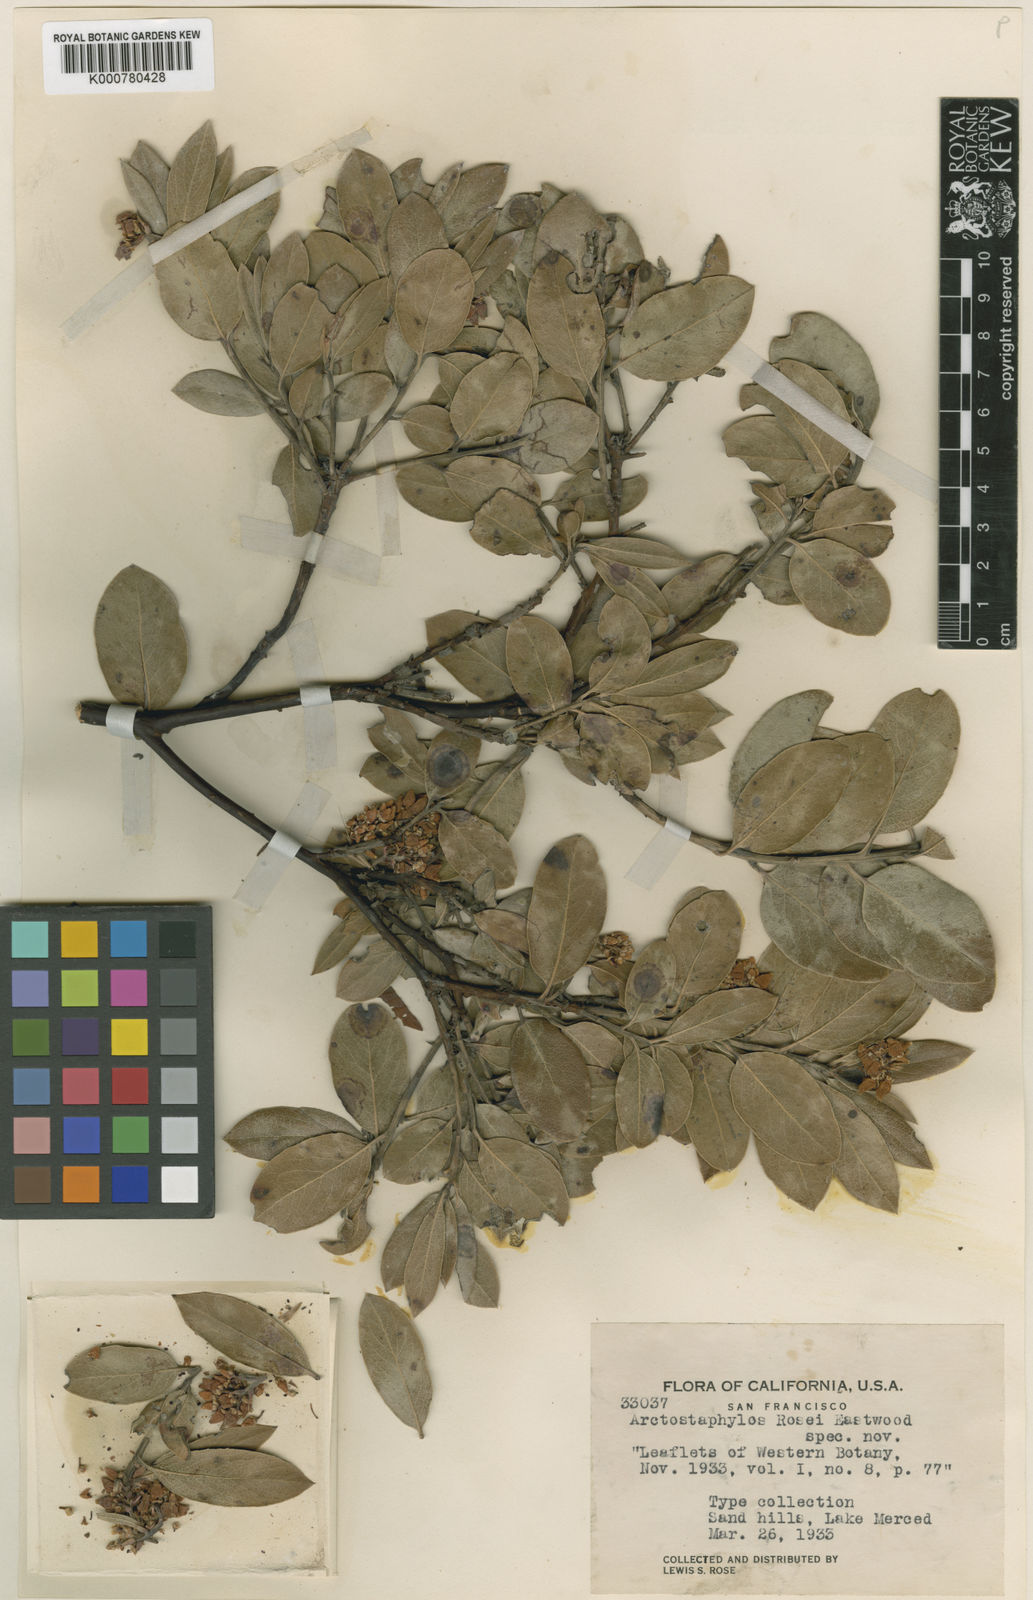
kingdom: Plantae
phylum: Tracheophyta
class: Magnoliopsida
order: Ericales
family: Ericaceae
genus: Arctostaphylos
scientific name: Arctostaphylos crustacea
